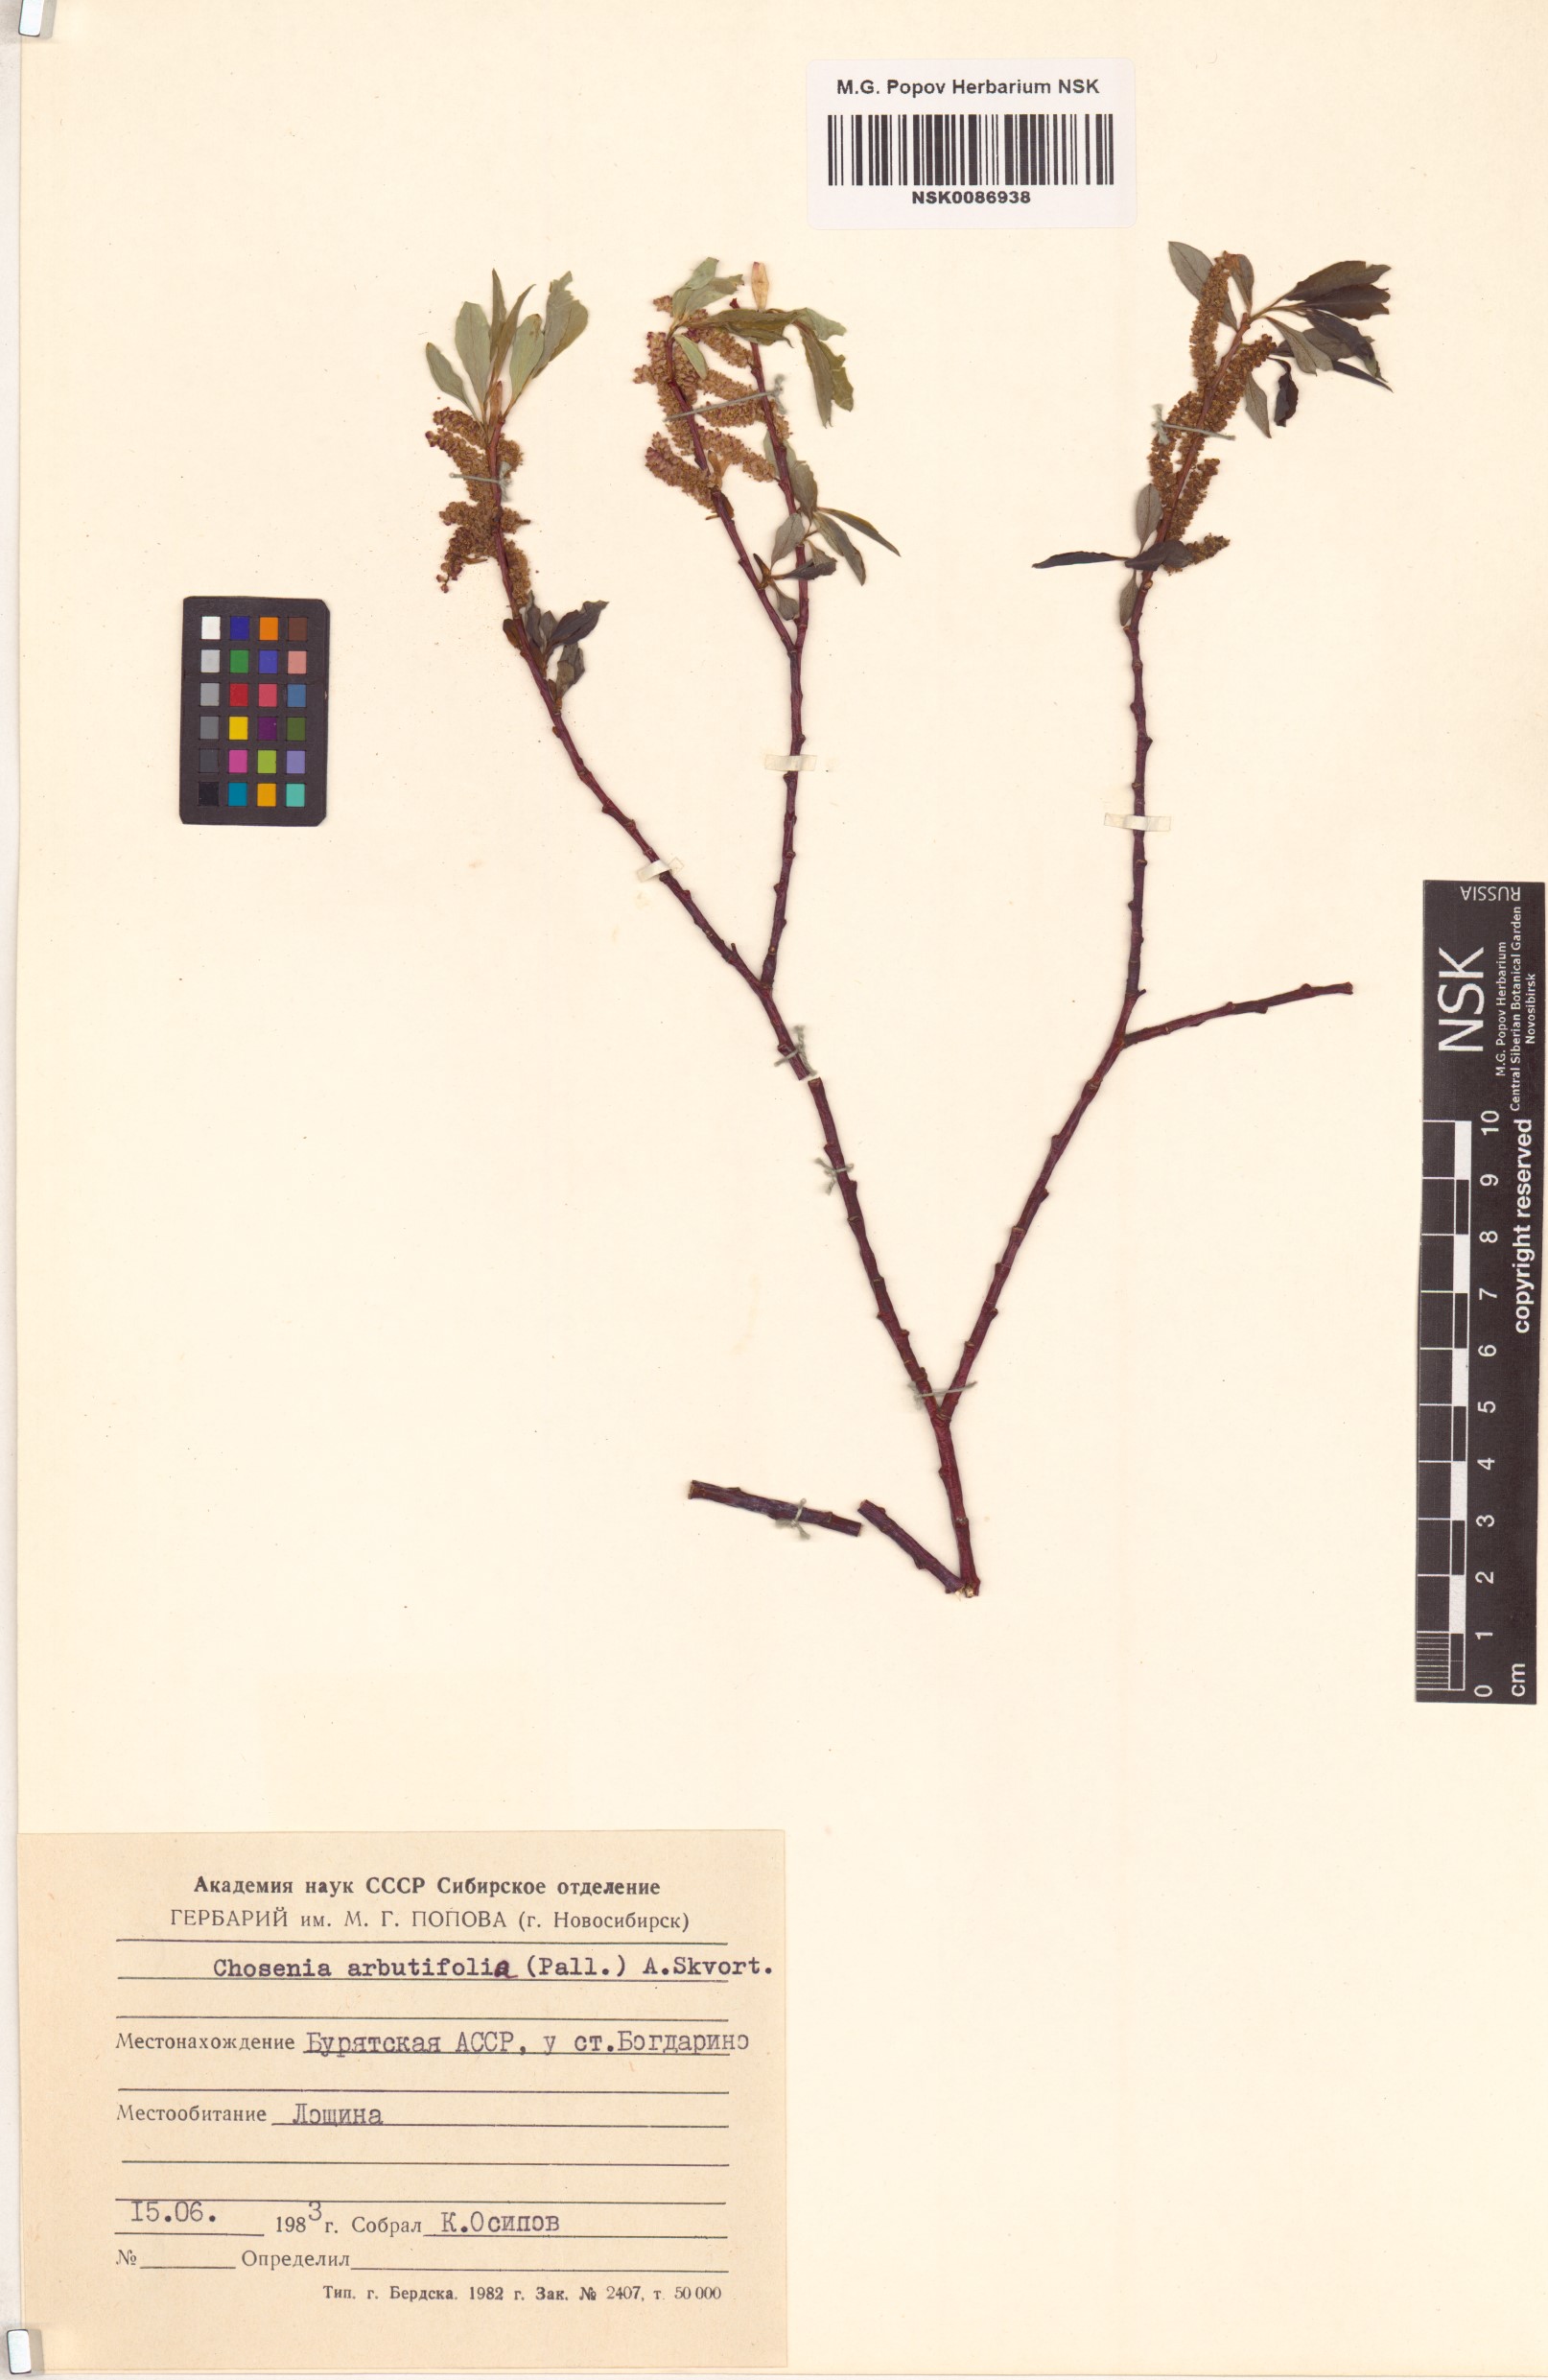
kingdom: Plantae
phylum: Tracheophyta
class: Magnoliopsida
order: Malpighiales
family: Salicaceae
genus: Chosenia
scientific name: Chosenia arbutifolia
